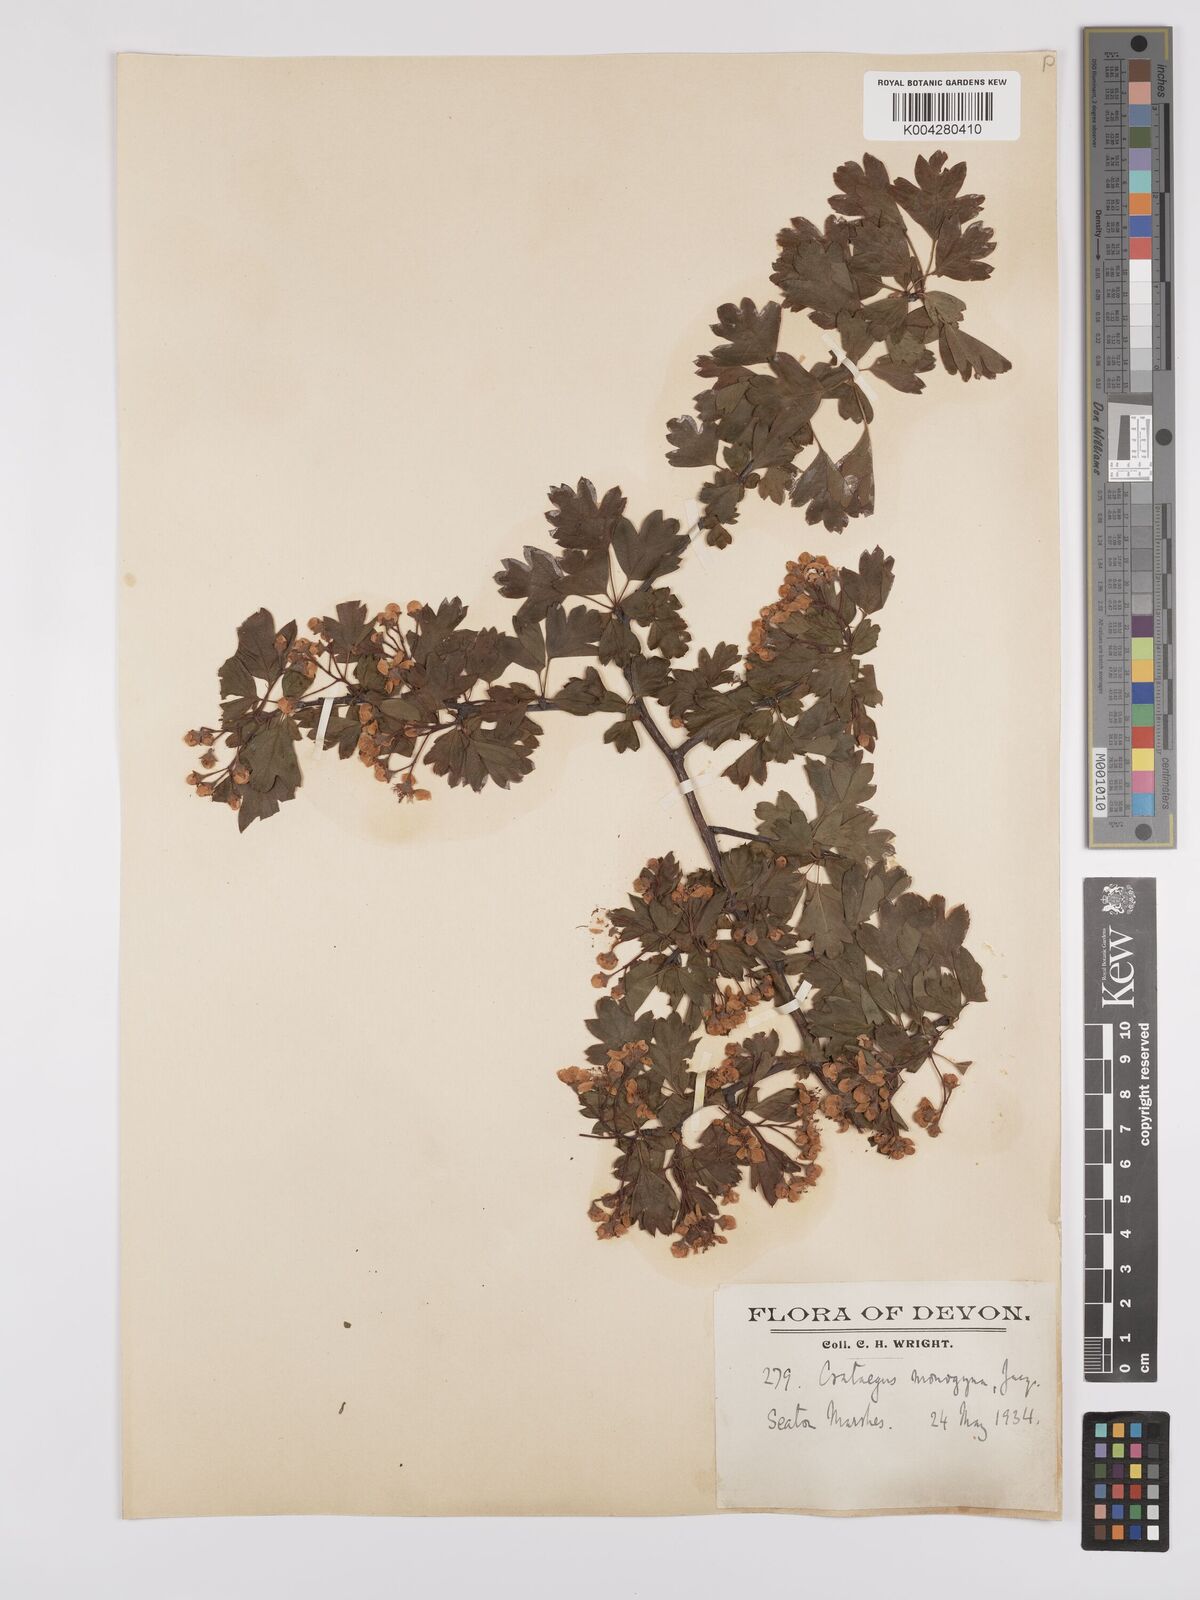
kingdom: Plantae
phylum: Tracheophyta
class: Magnoliopsida
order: Rosales
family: Rosaceae
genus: Crataegus
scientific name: Crataegus monogyna
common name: Hawthorn
